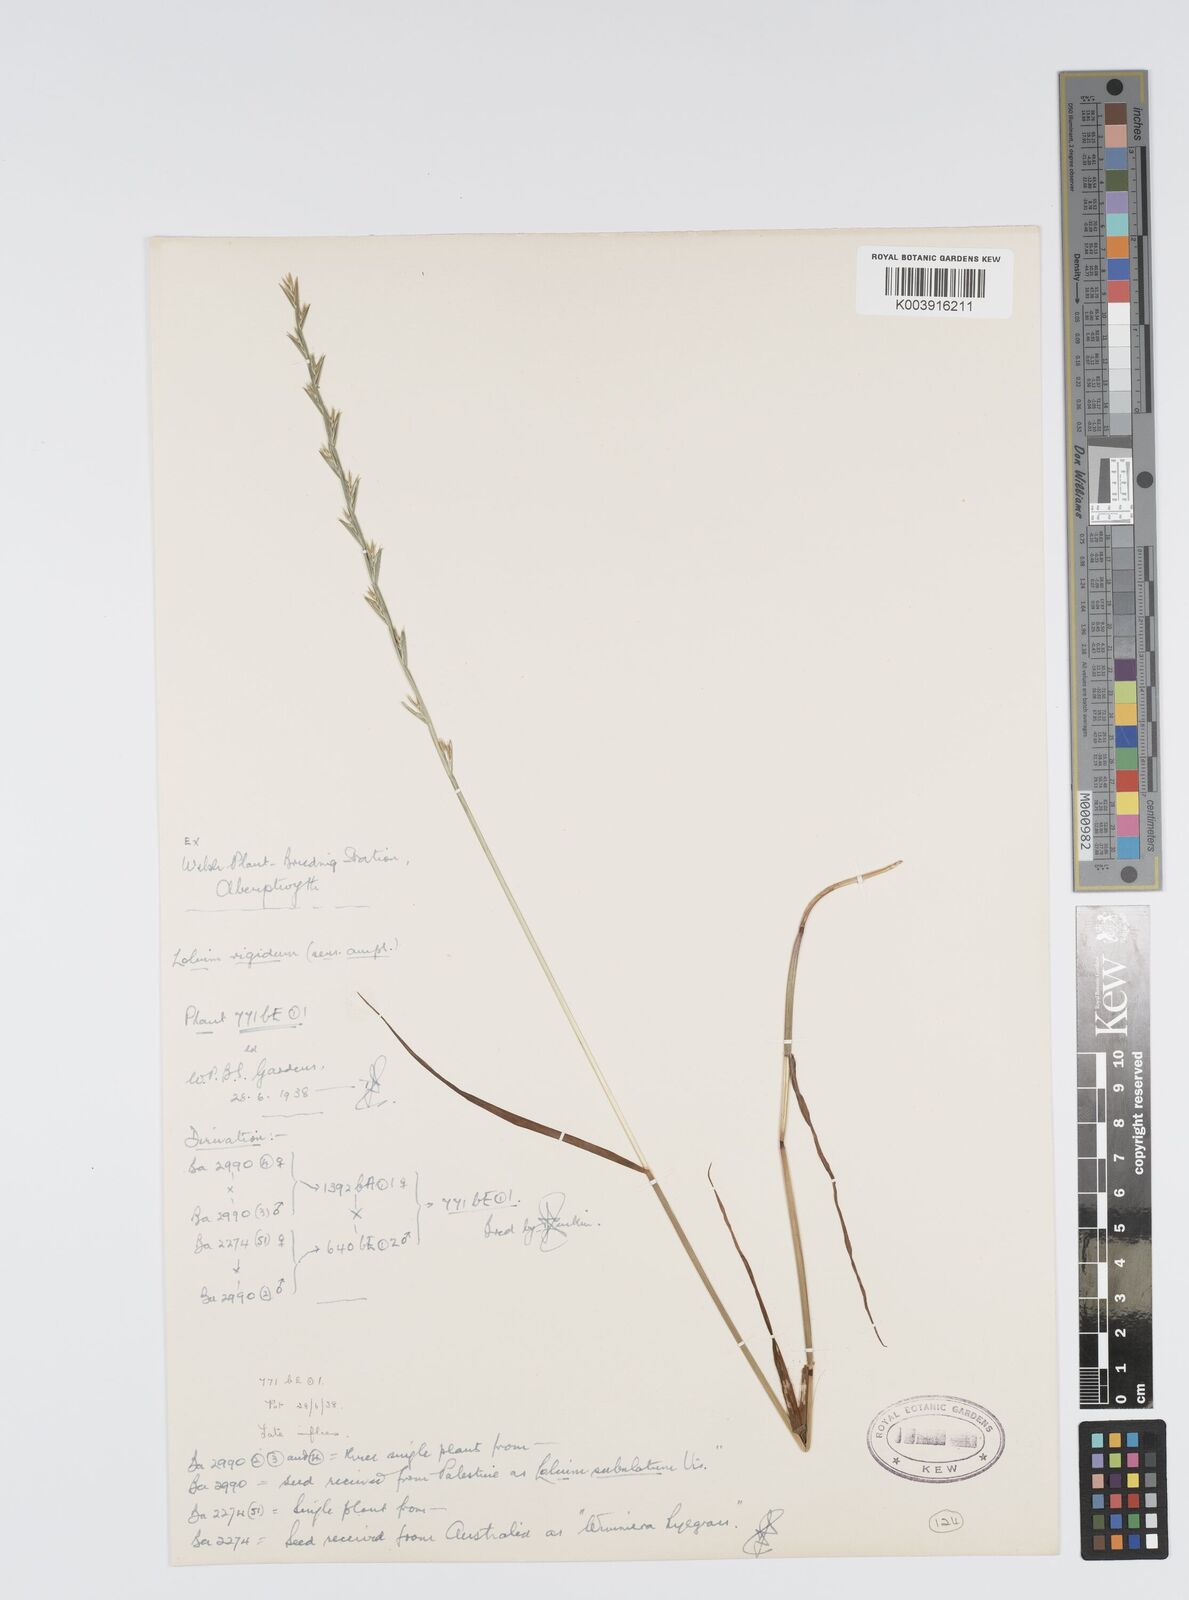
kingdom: Plantae
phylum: Tracheophyta
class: Liliopsida
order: Poales
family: Poaceae
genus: Lolium
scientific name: Lolium rigidum
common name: Wimmera ryegrass
